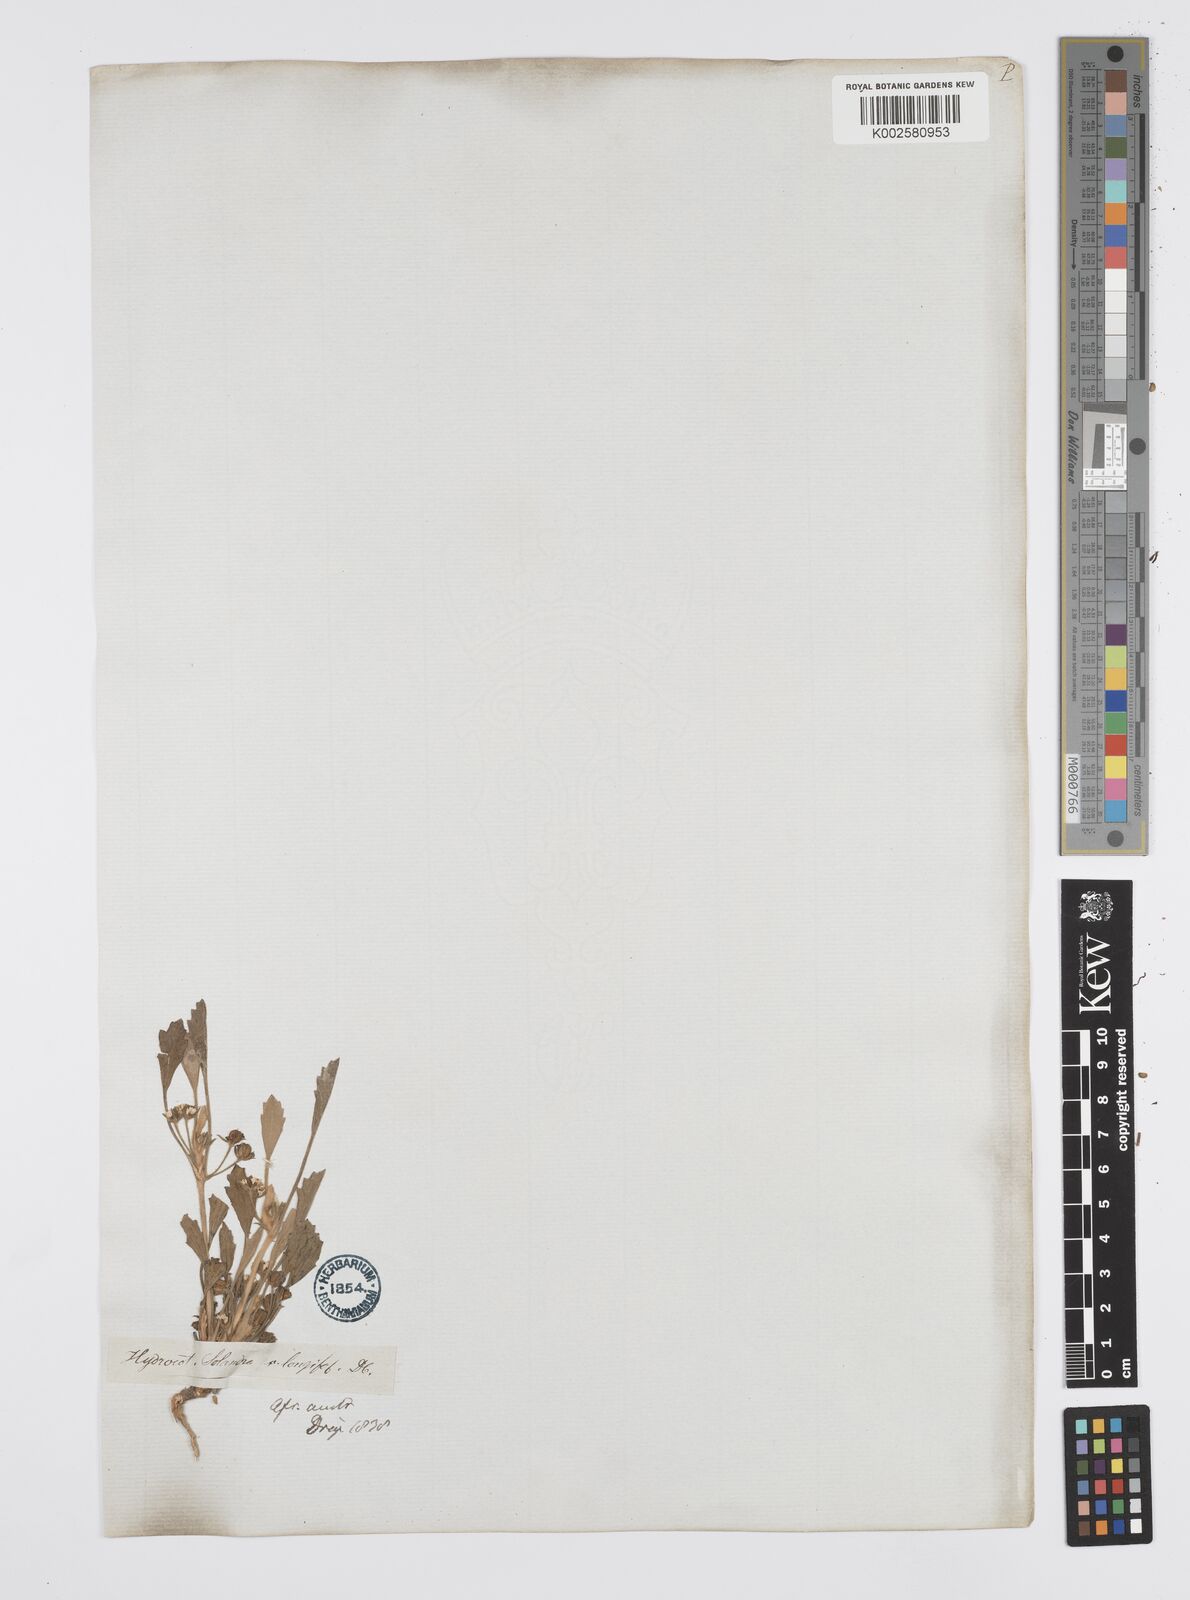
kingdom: Plantae
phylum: Tracheophyta
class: Magnoliopsida
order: Apiales
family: Apiaceae
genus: Centella
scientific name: Centella capensis
